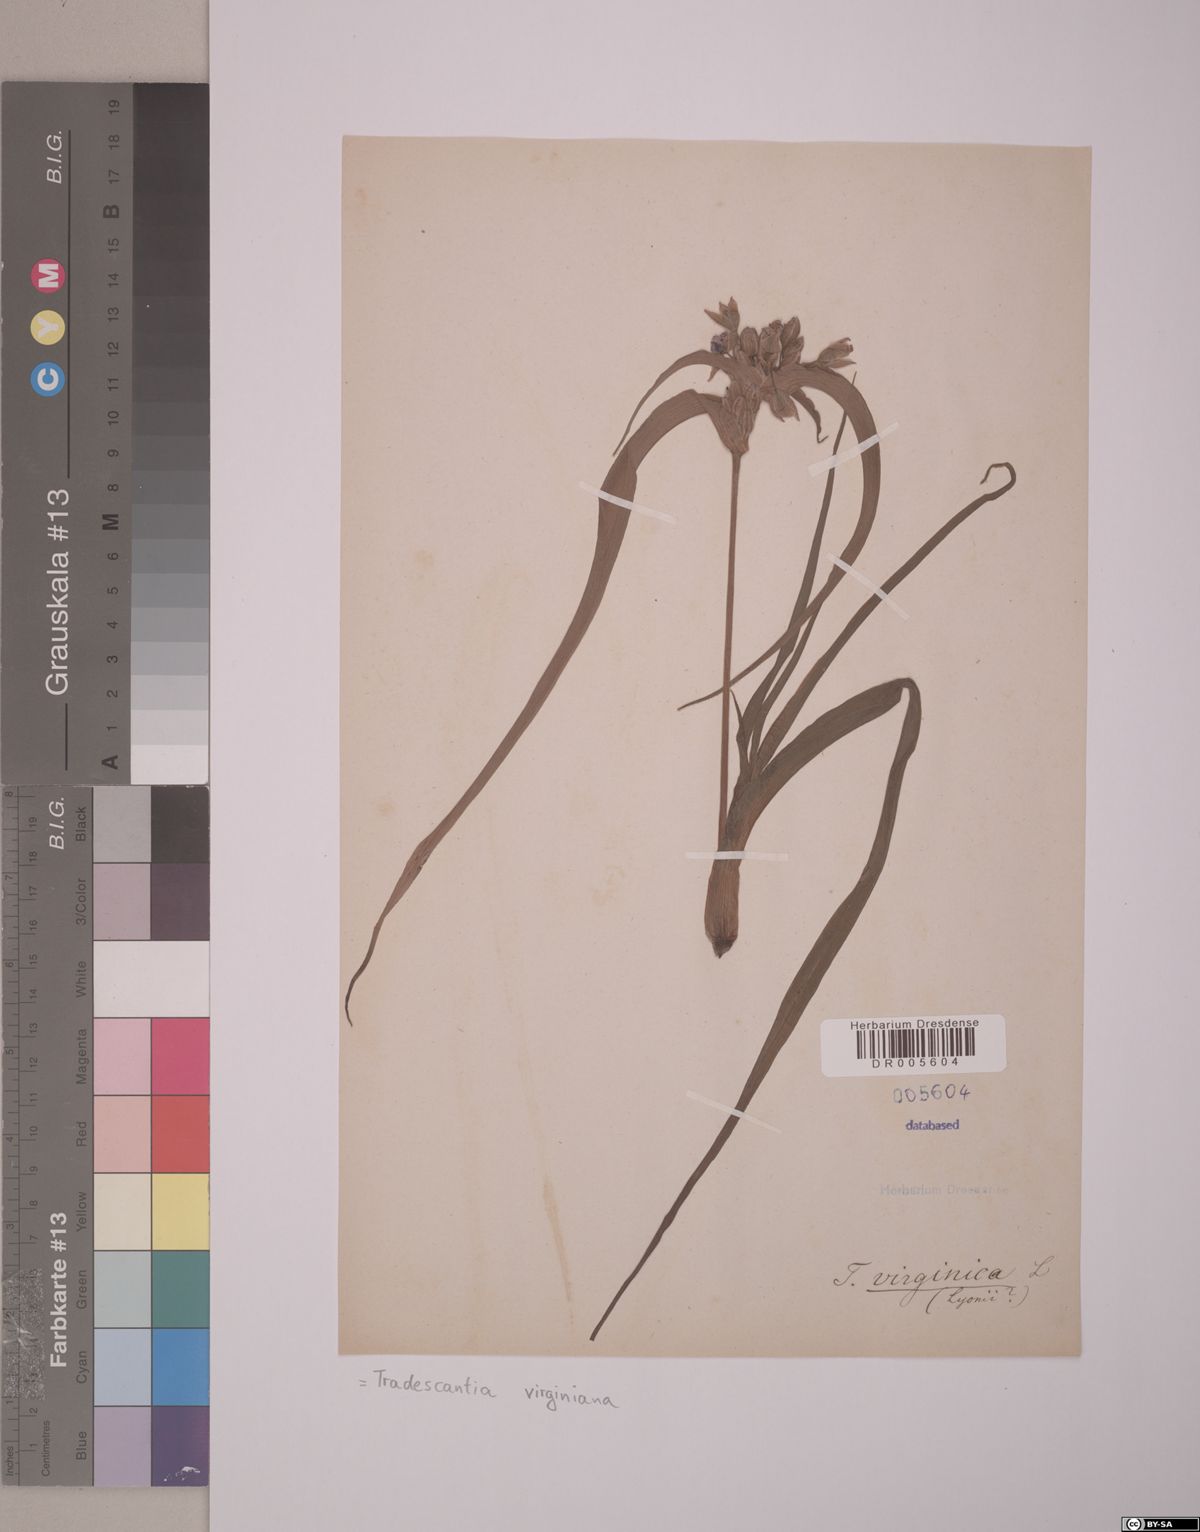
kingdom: Plantae
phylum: Tracheophyta
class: Liliopsida
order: Commelinales
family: Commelinaceae
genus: Tradescantia
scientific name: Tradescantia virginiana
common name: Spiderwort
